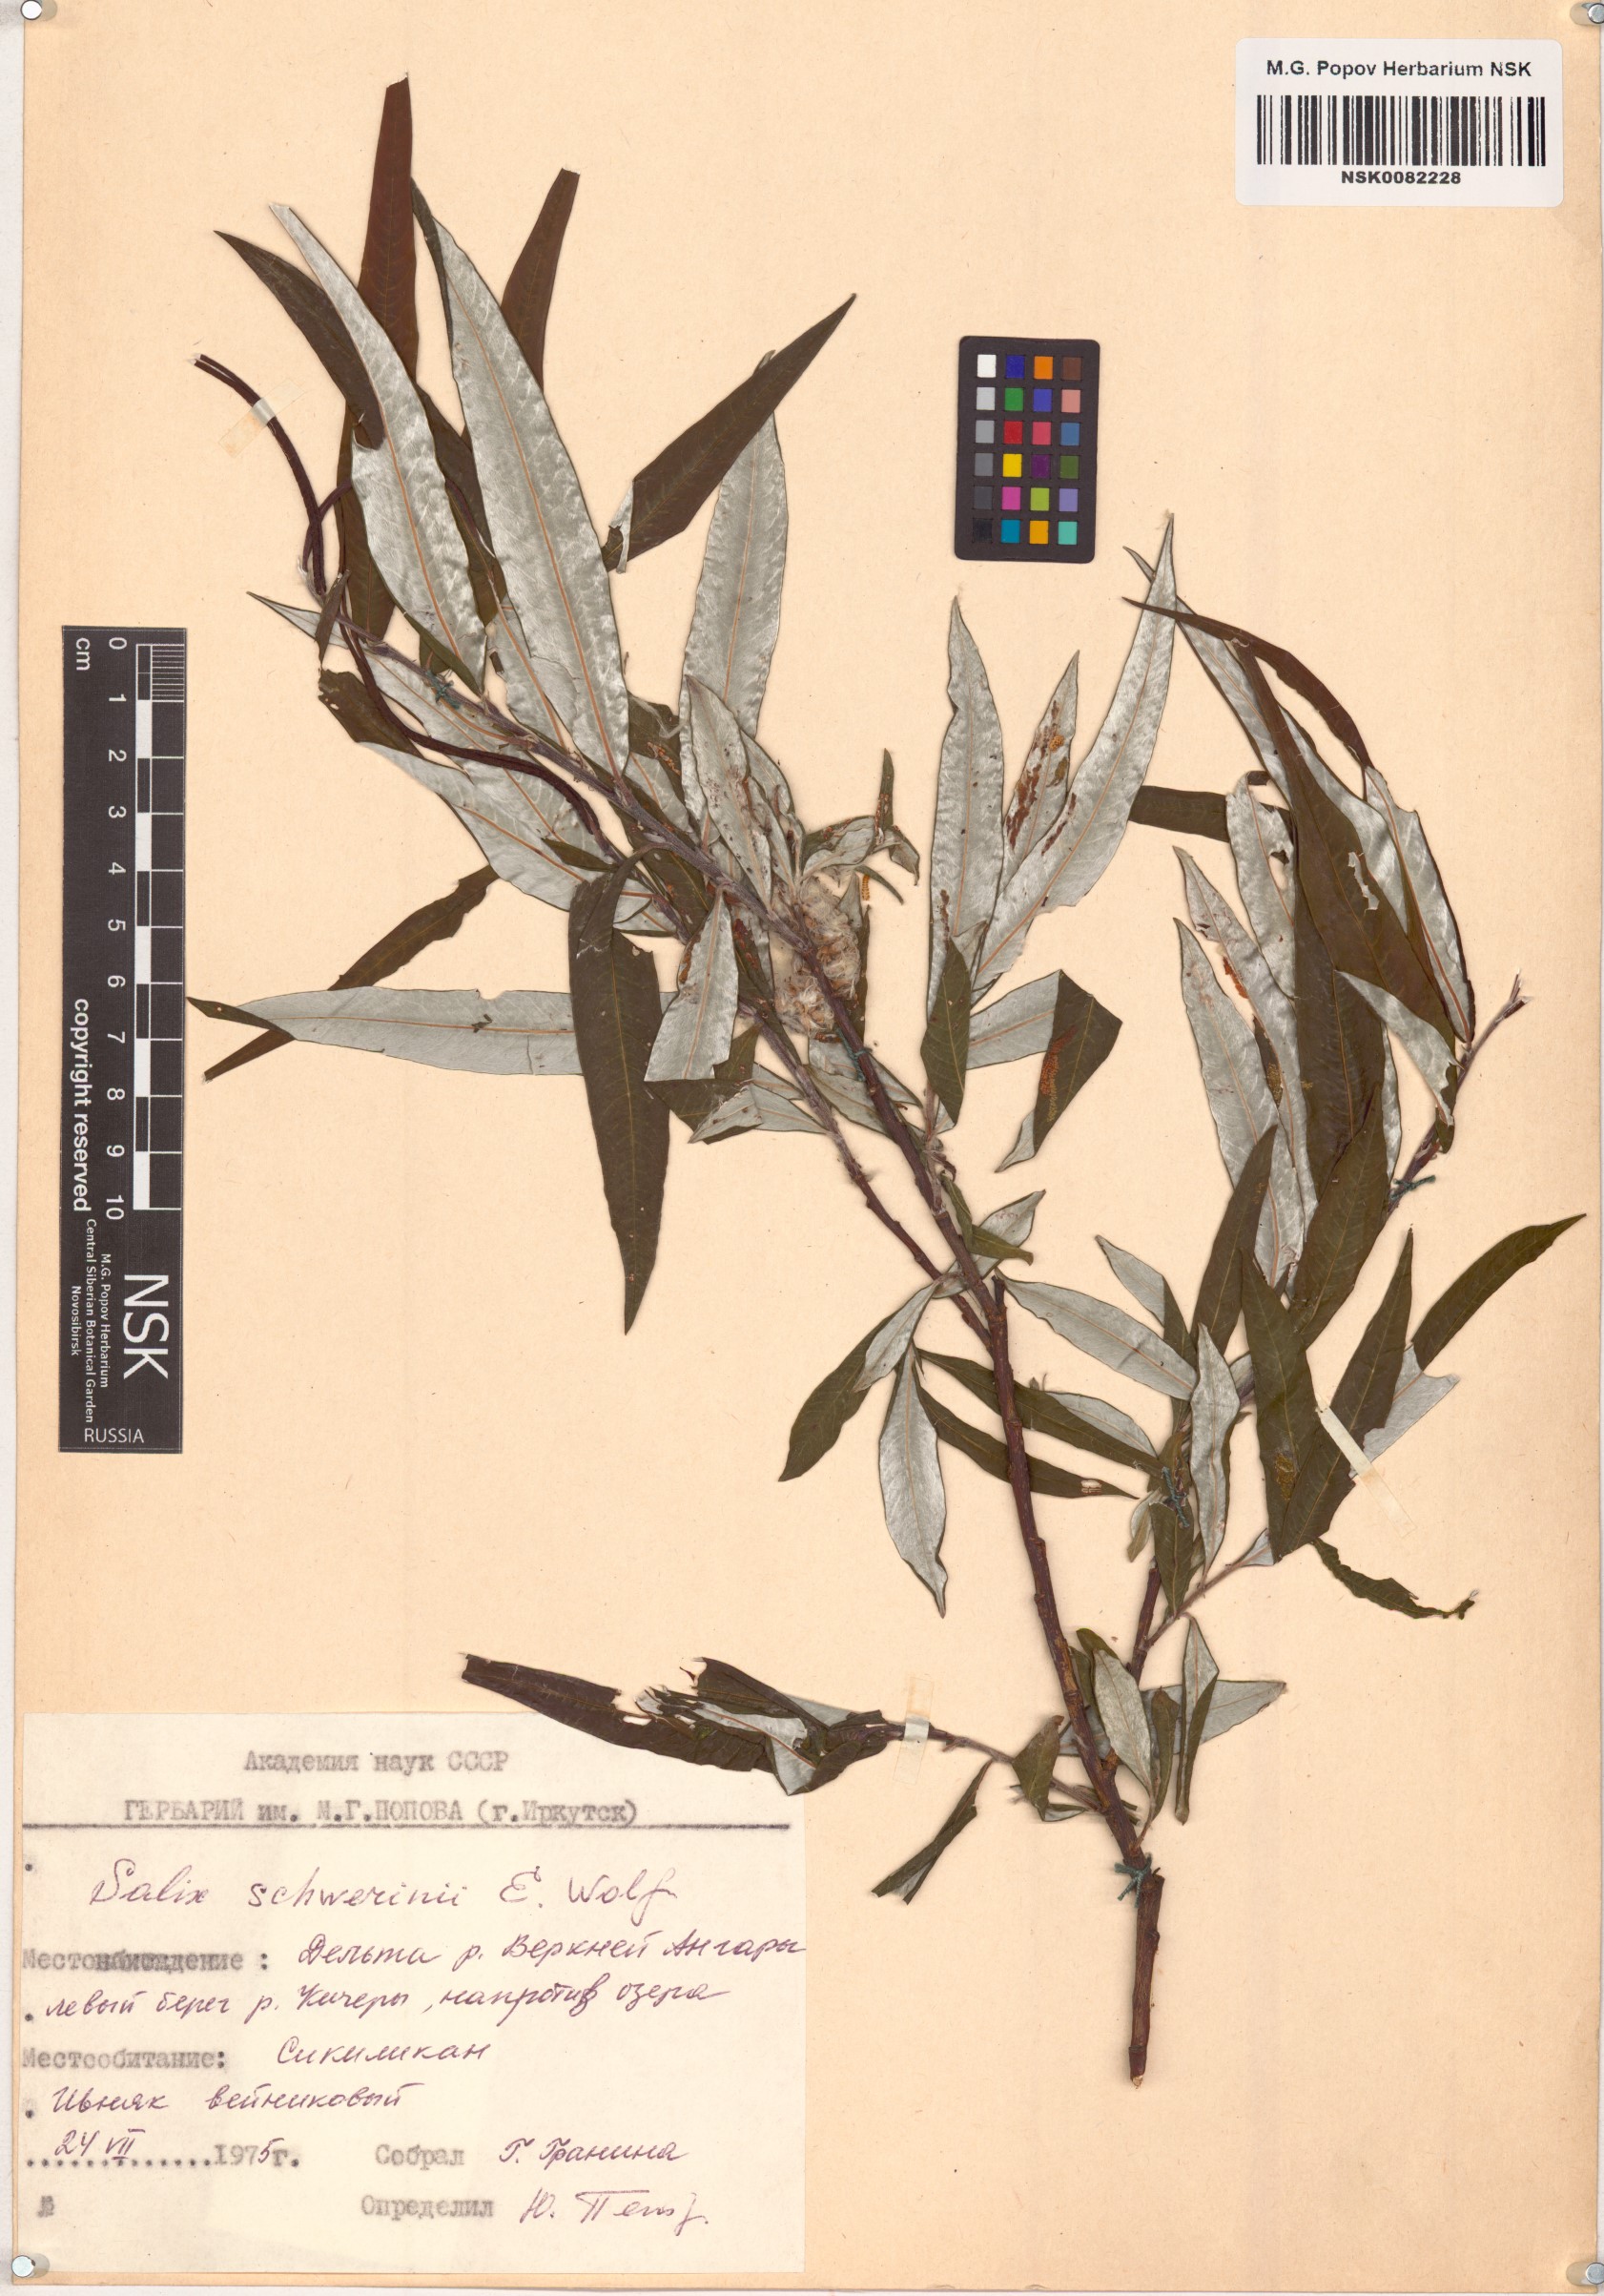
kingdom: Plantae
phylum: Tracheophyta
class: Magnoliopsida
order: Malpighiales
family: Salicaceae
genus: Salix
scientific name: Salix schwerinii
